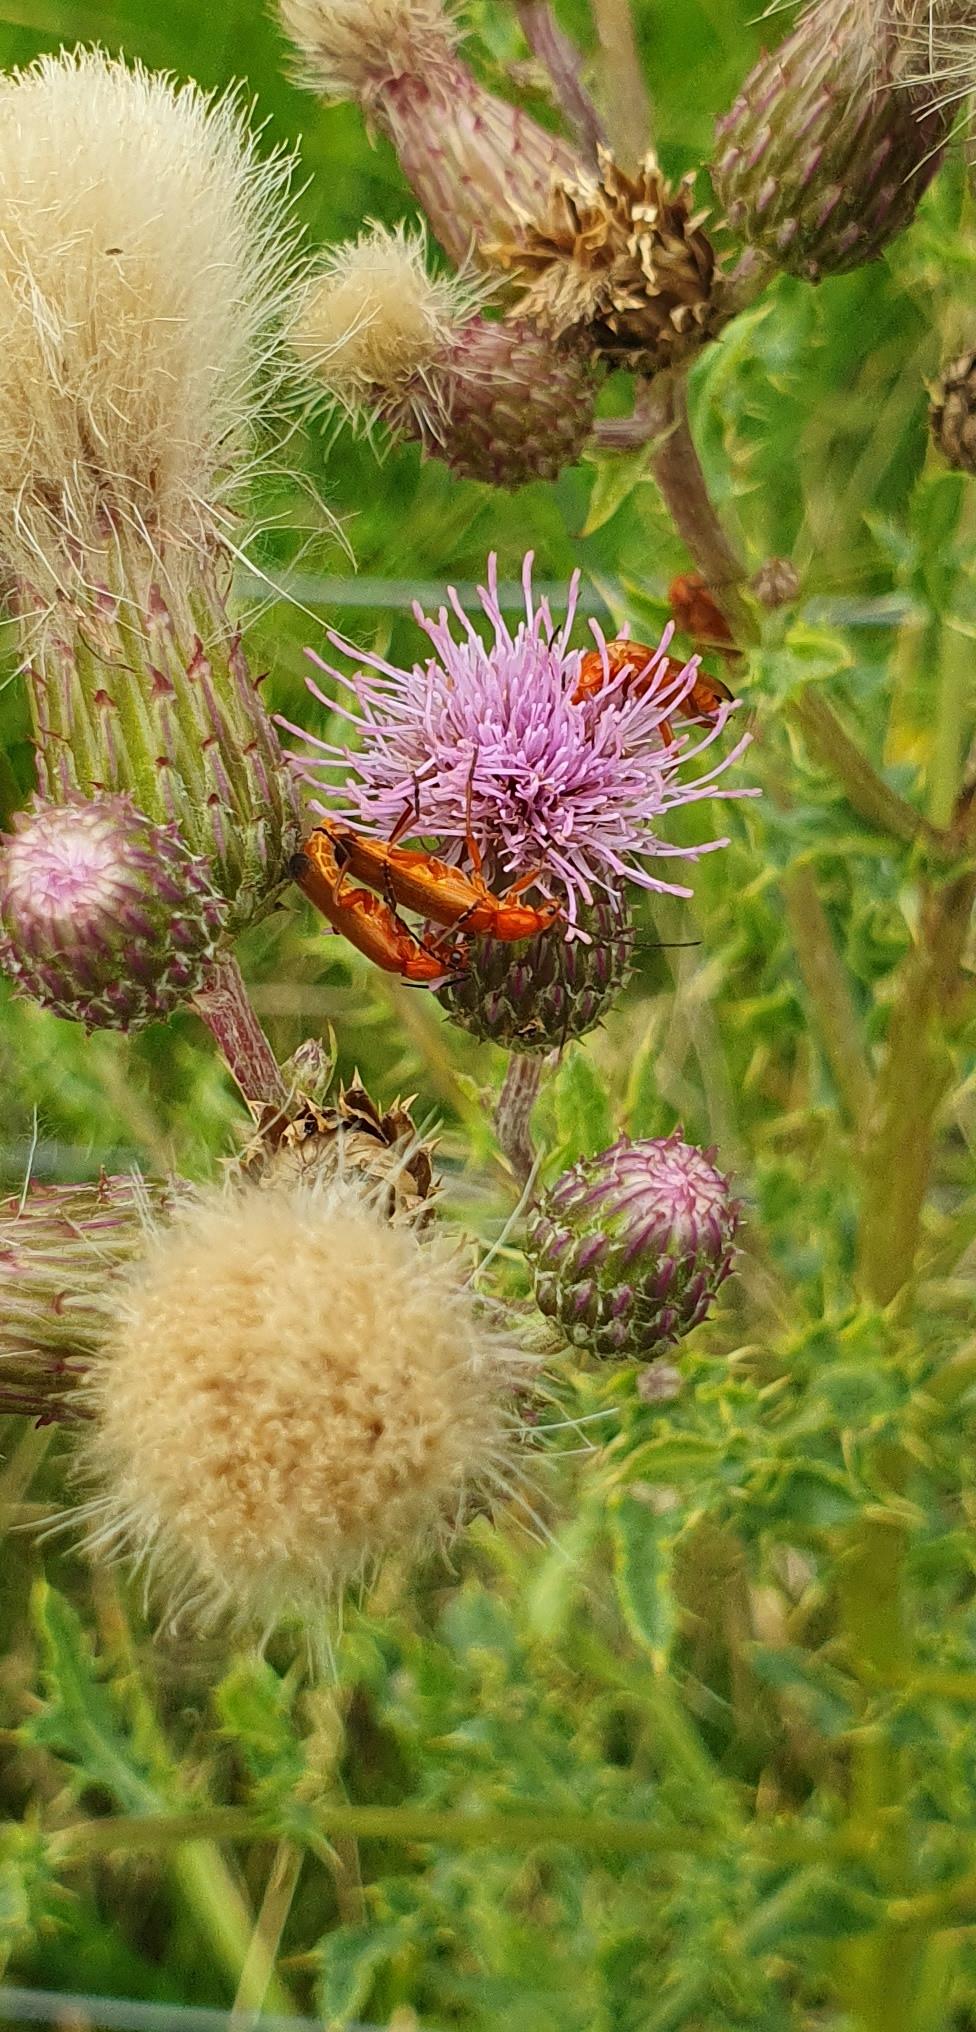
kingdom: Animalia
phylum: Arthropoda
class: Insecta
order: Coleoptera
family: Cantharidae
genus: Rhagonycha
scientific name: Rhagonycha fulva
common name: Præstebille
